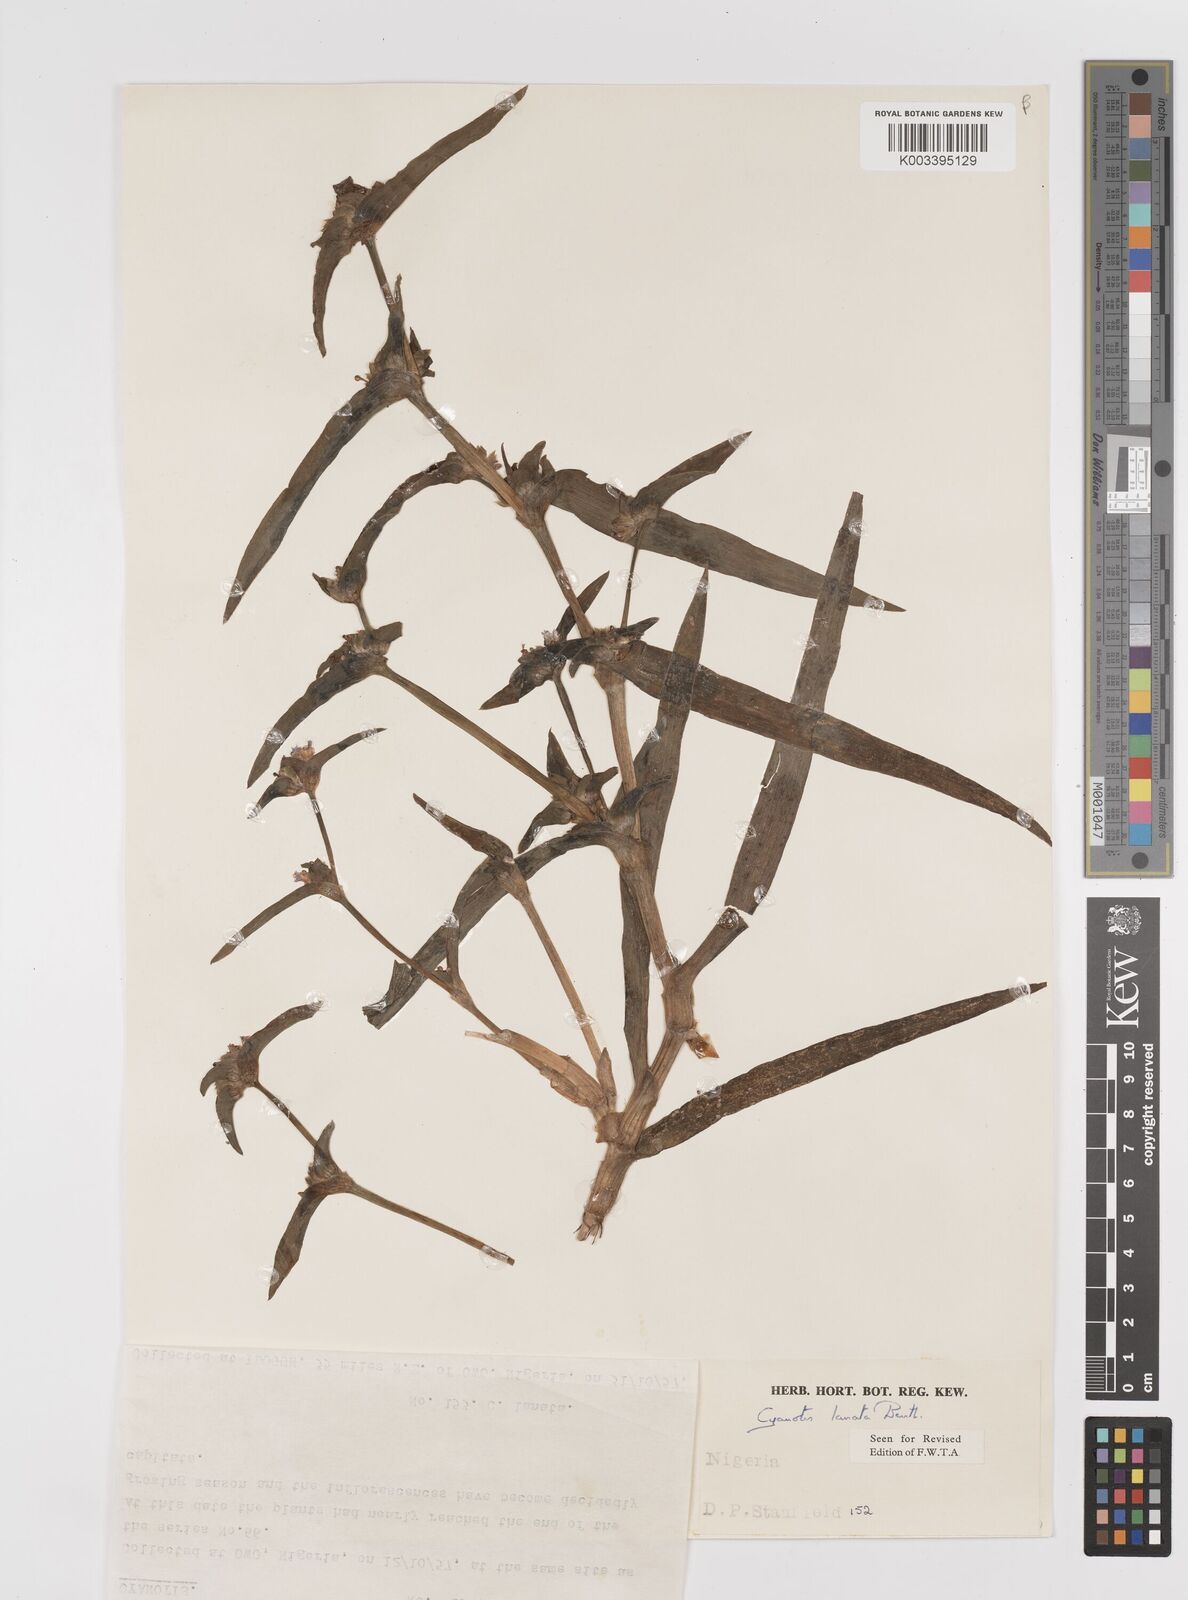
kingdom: Plantae
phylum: Tracheophyta
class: Liliopsida
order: Commelinales
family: Commelinaceae
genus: Cyanotis
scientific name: Cyanotis lanata
